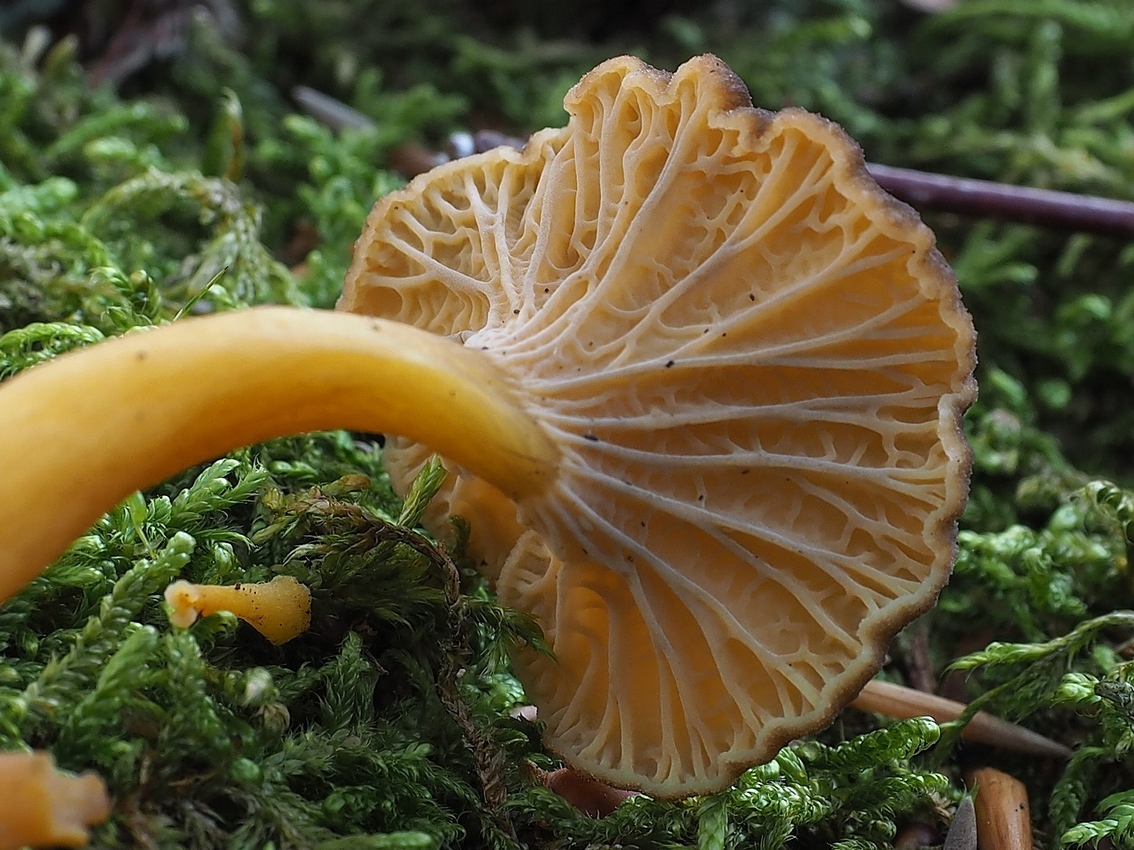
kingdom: Fungi
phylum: Basidiomycota
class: Agaricomycetes
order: Cantharellales
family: Hydnaceae
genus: Craterellus
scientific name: Craterellus tubaeformis
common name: tragt-kantarel
